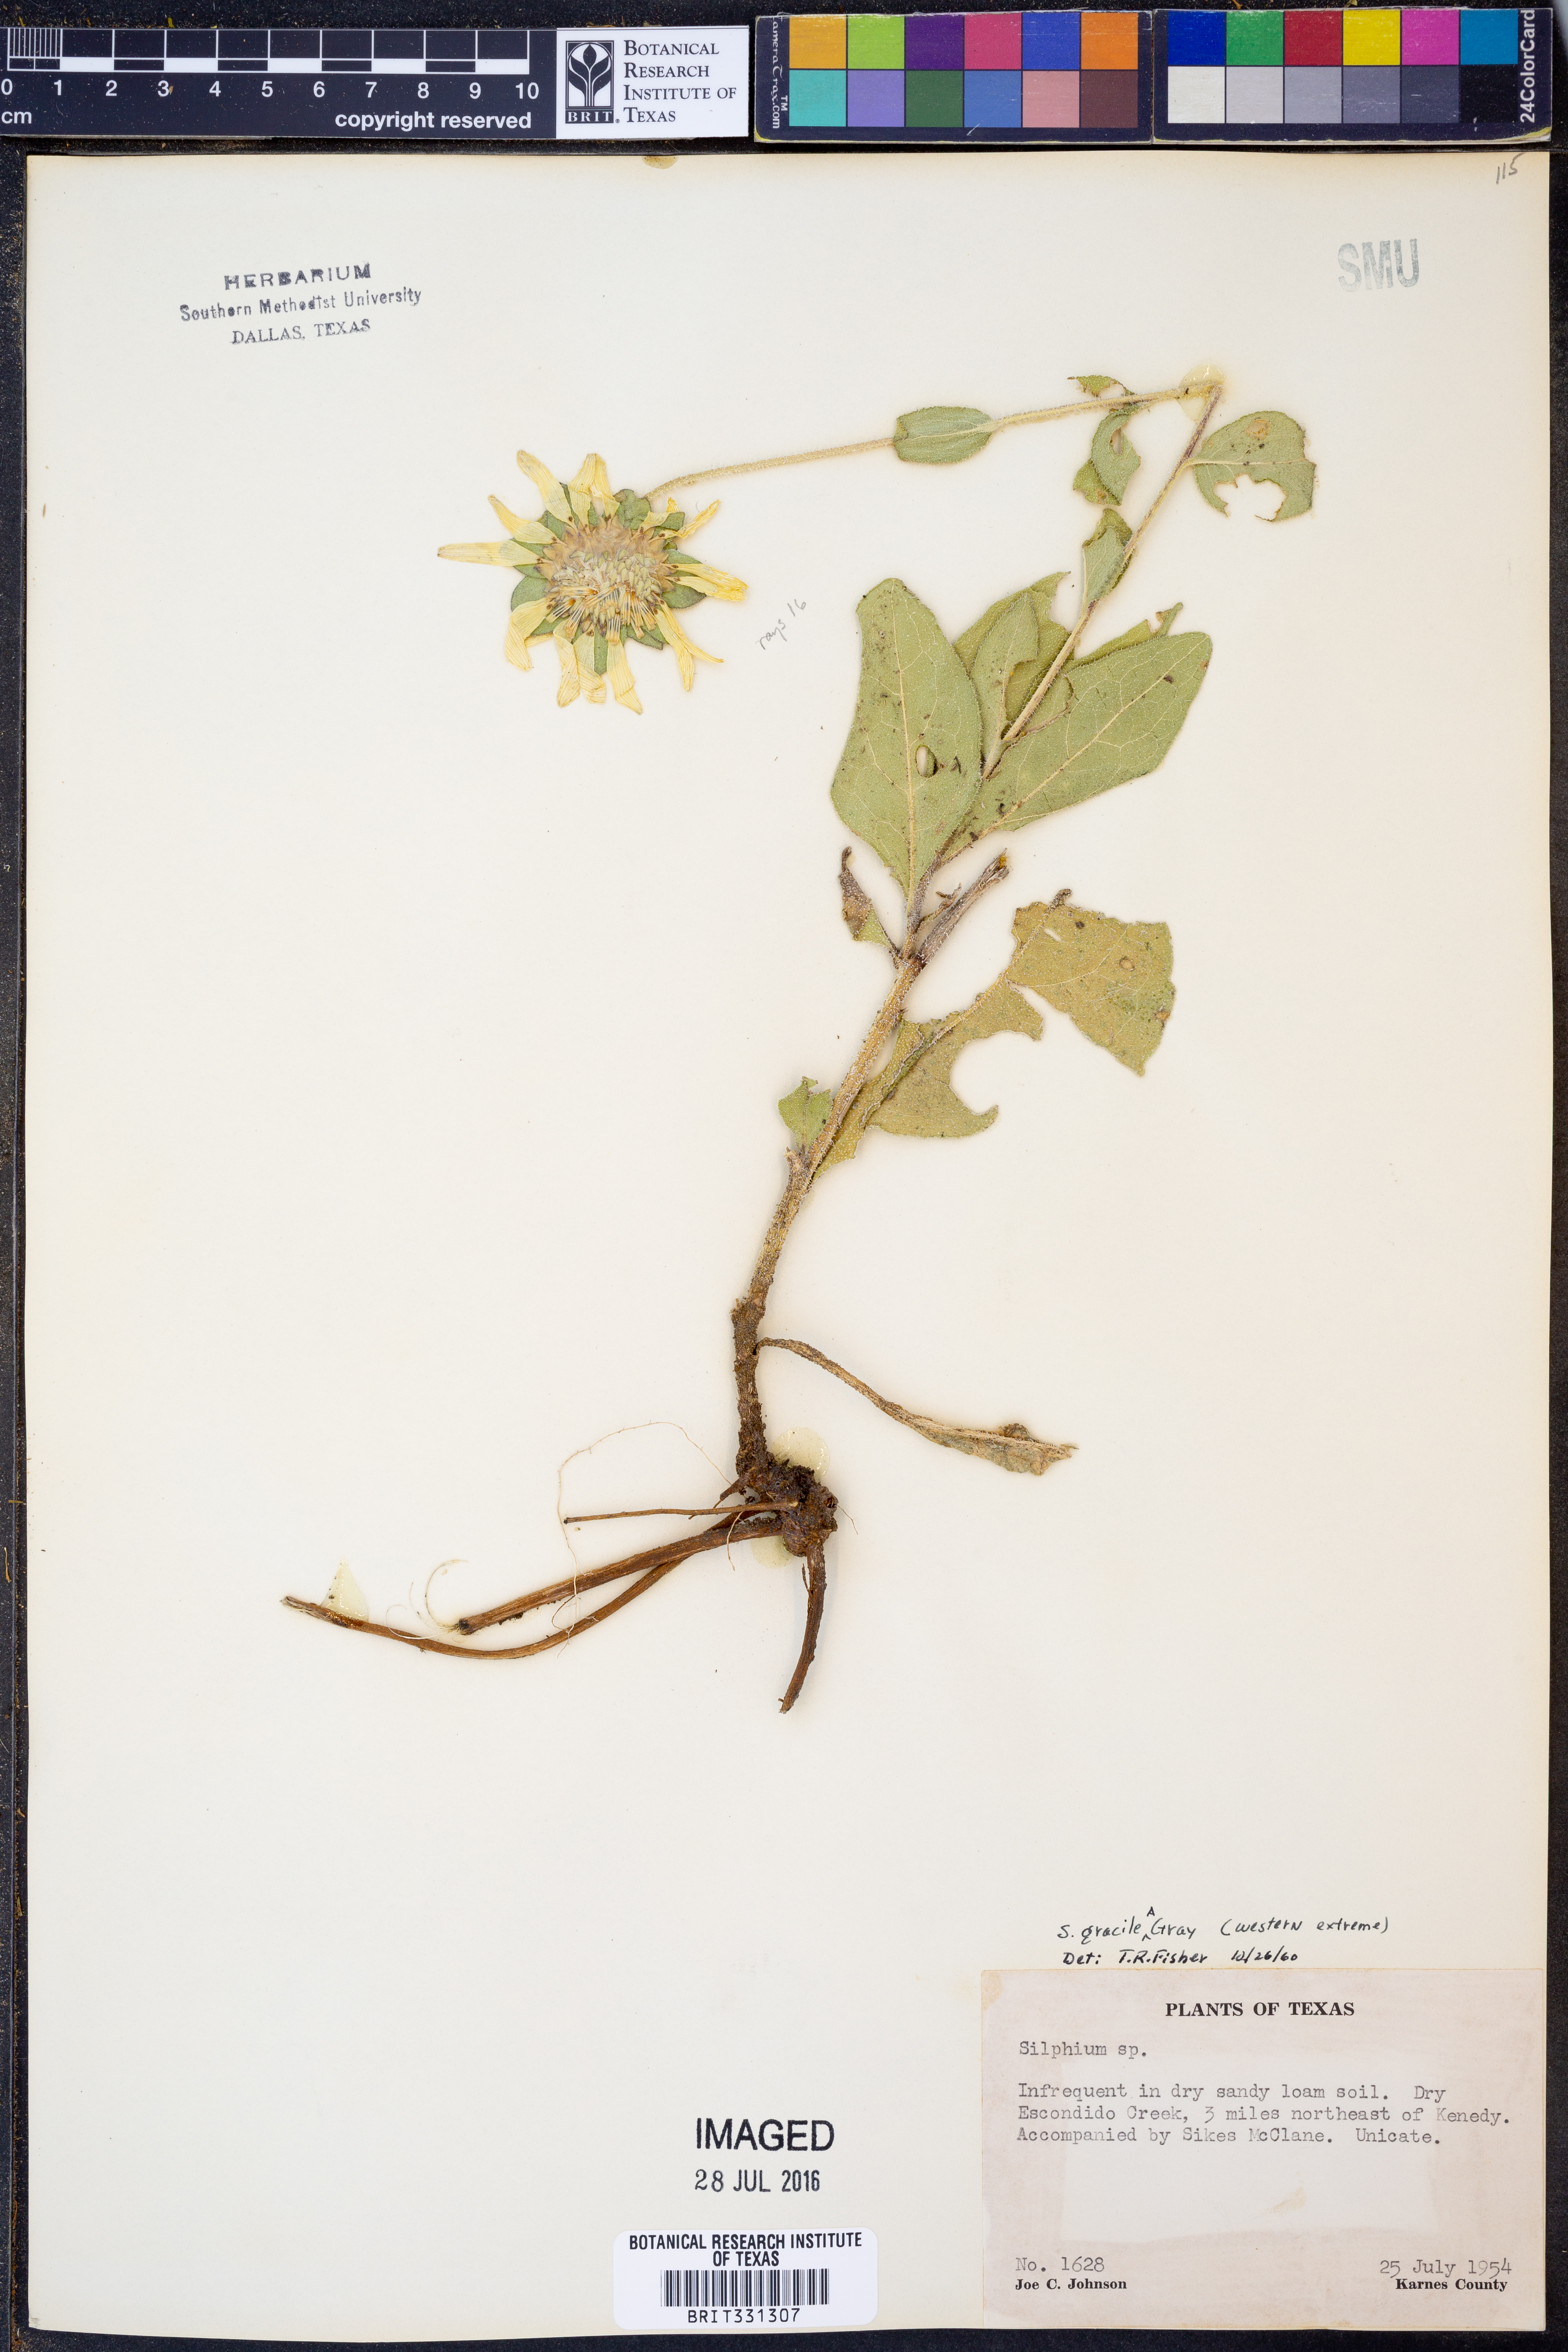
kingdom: Plantae
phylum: Tracheophyta
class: Magnoliopsida
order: Asterales
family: Asteraceae
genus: Silphium
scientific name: Silphium radula
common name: Roughleaf rosinweed
